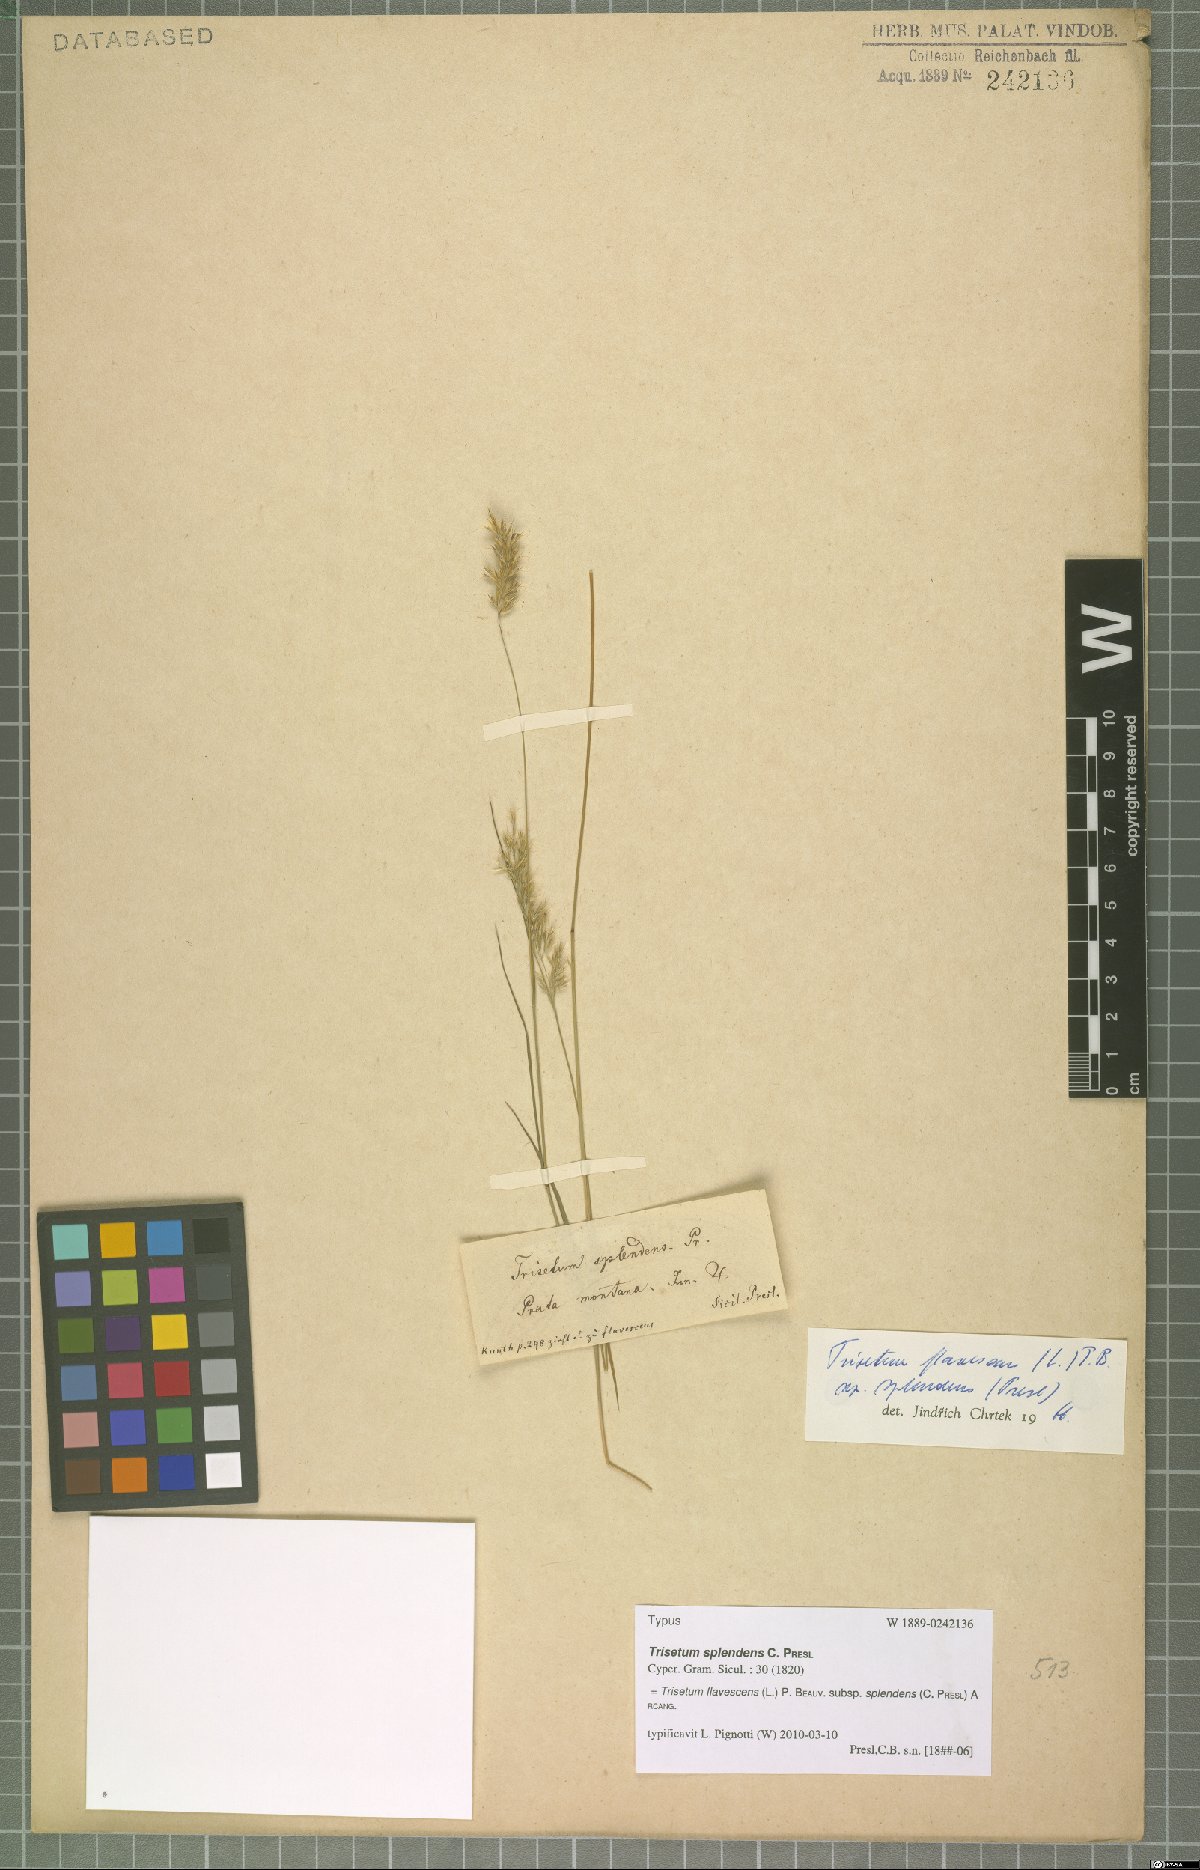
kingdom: Plantae
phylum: Tracheophyta
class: Liliopsida
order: Poales
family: Poaceae
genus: Trisetum
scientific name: Trisetum flavescens
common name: Yellow oat-grass
